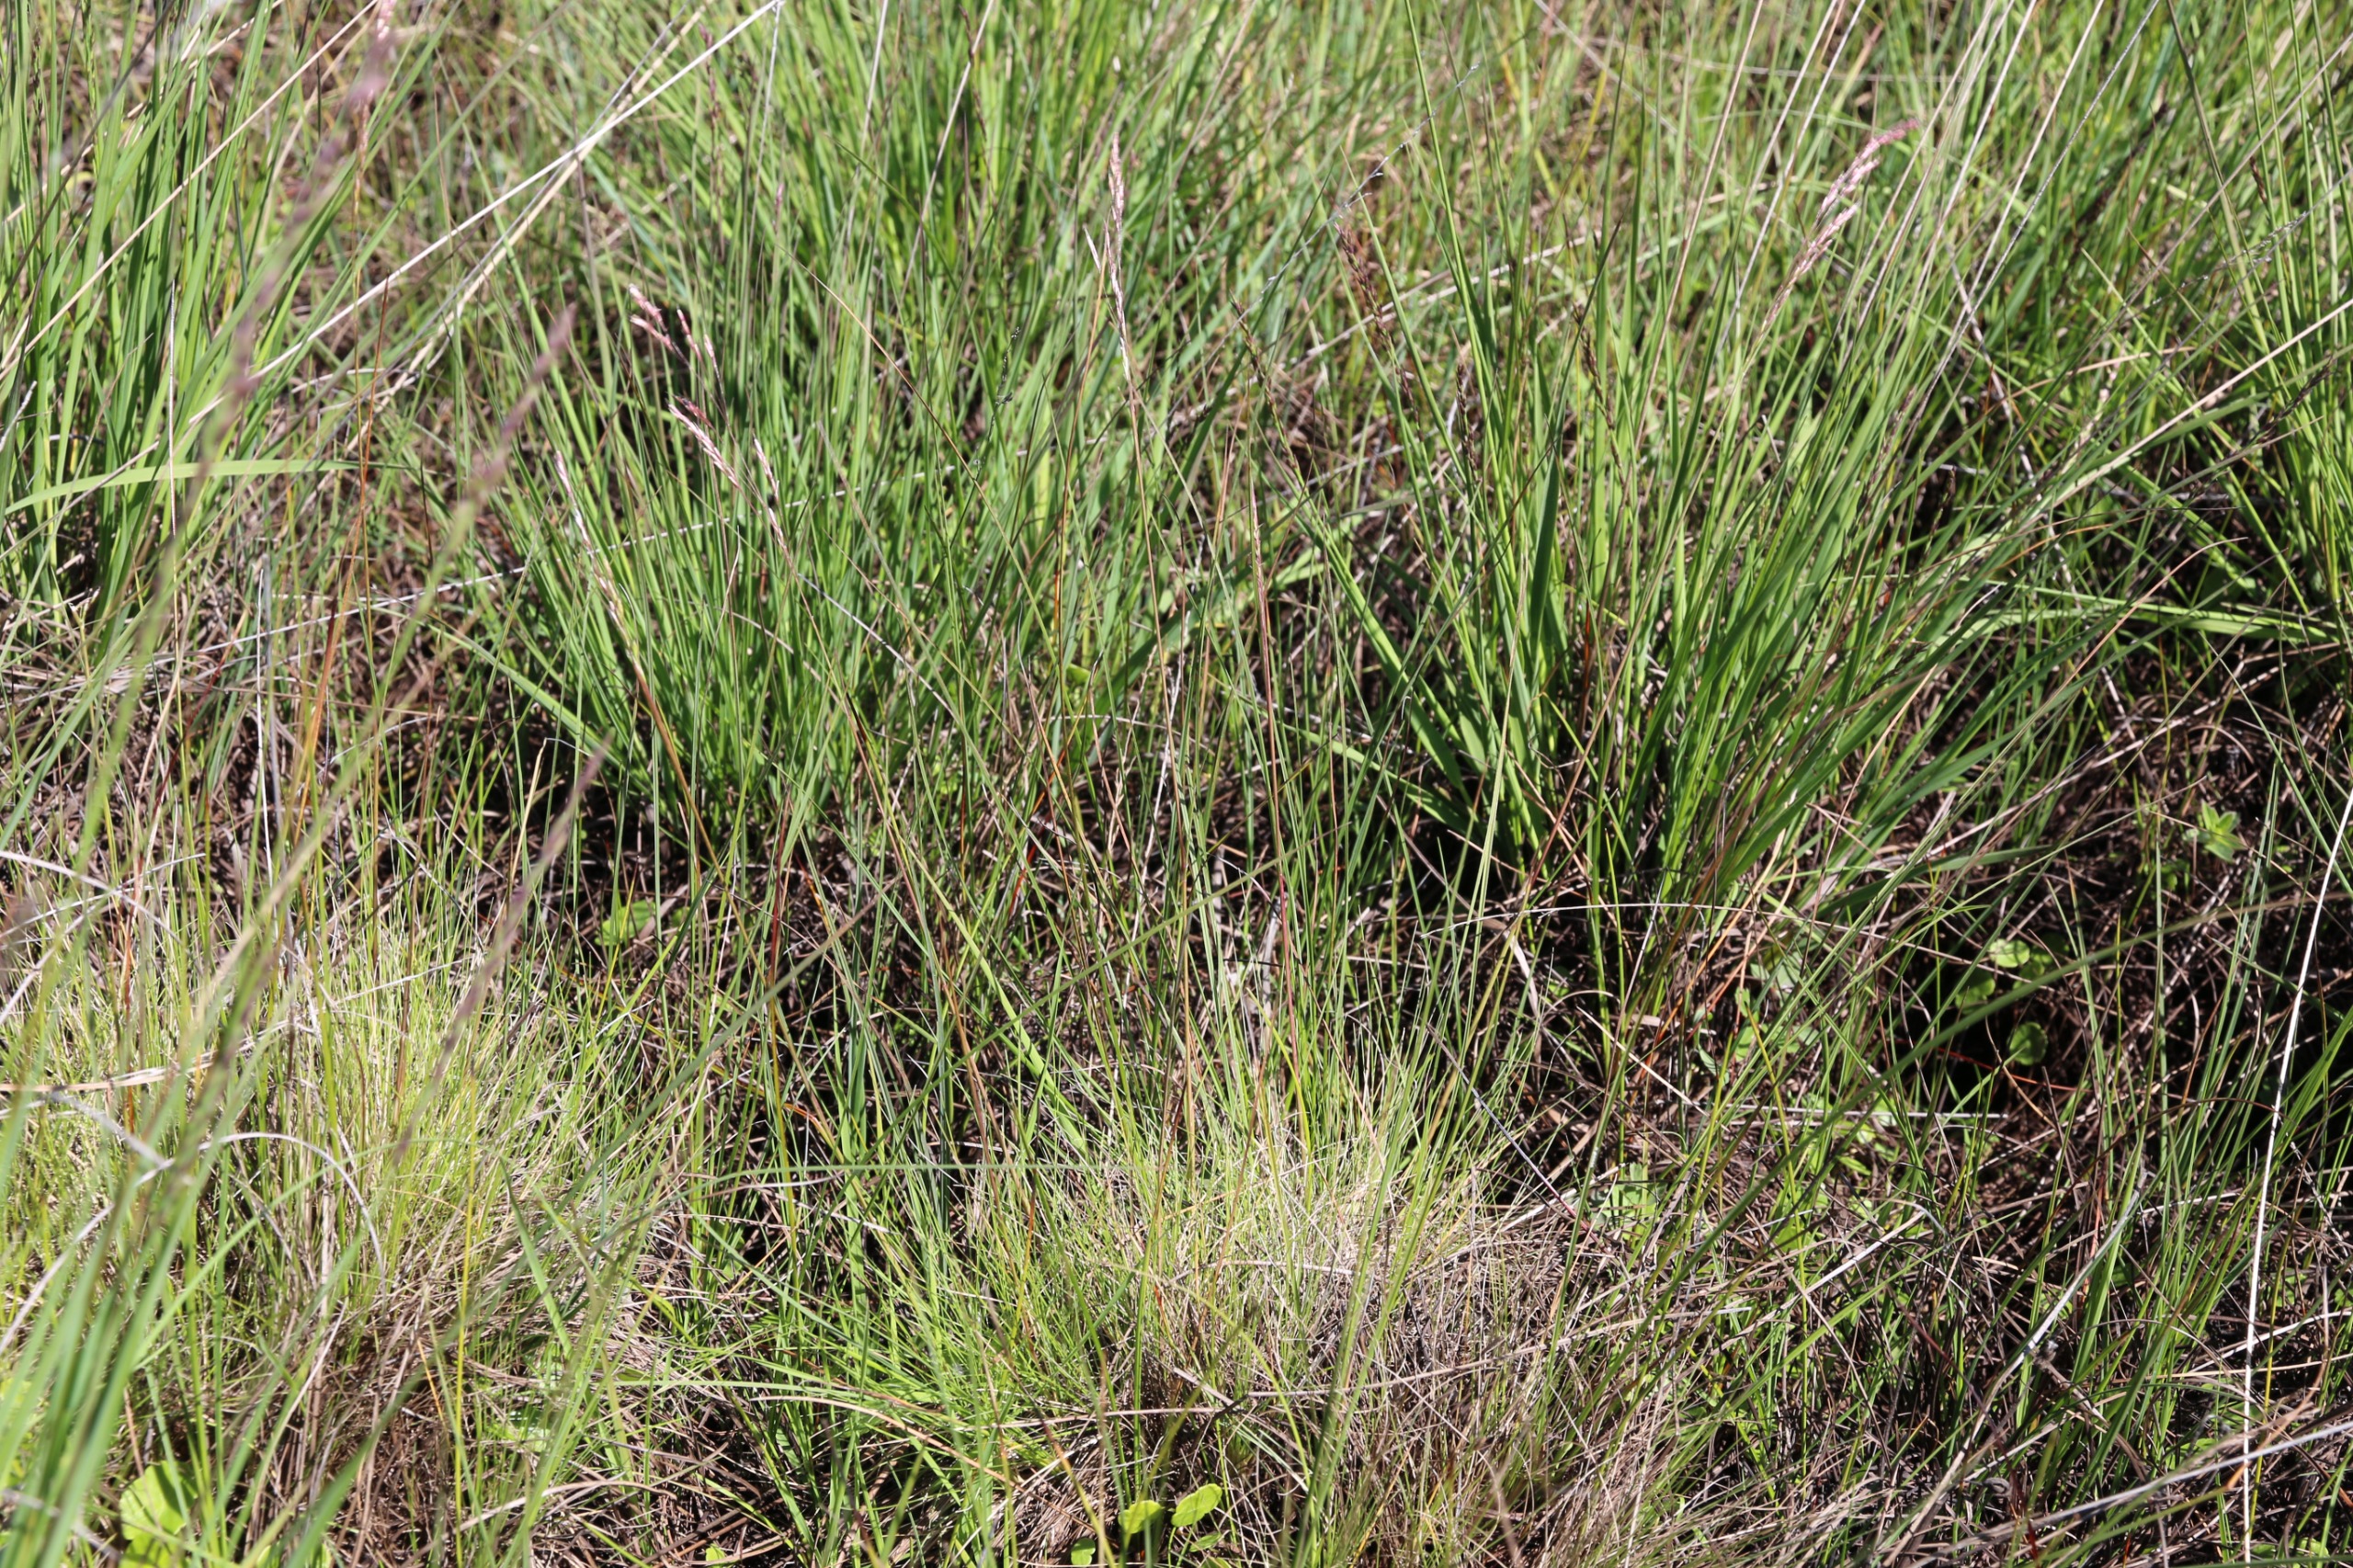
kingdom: Plantae
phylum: Tracheophyta
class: Liliopsida
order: Poales
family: Poaceae
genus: Deschampsia
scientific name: Deschampsia setacea
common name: Fin bunke
